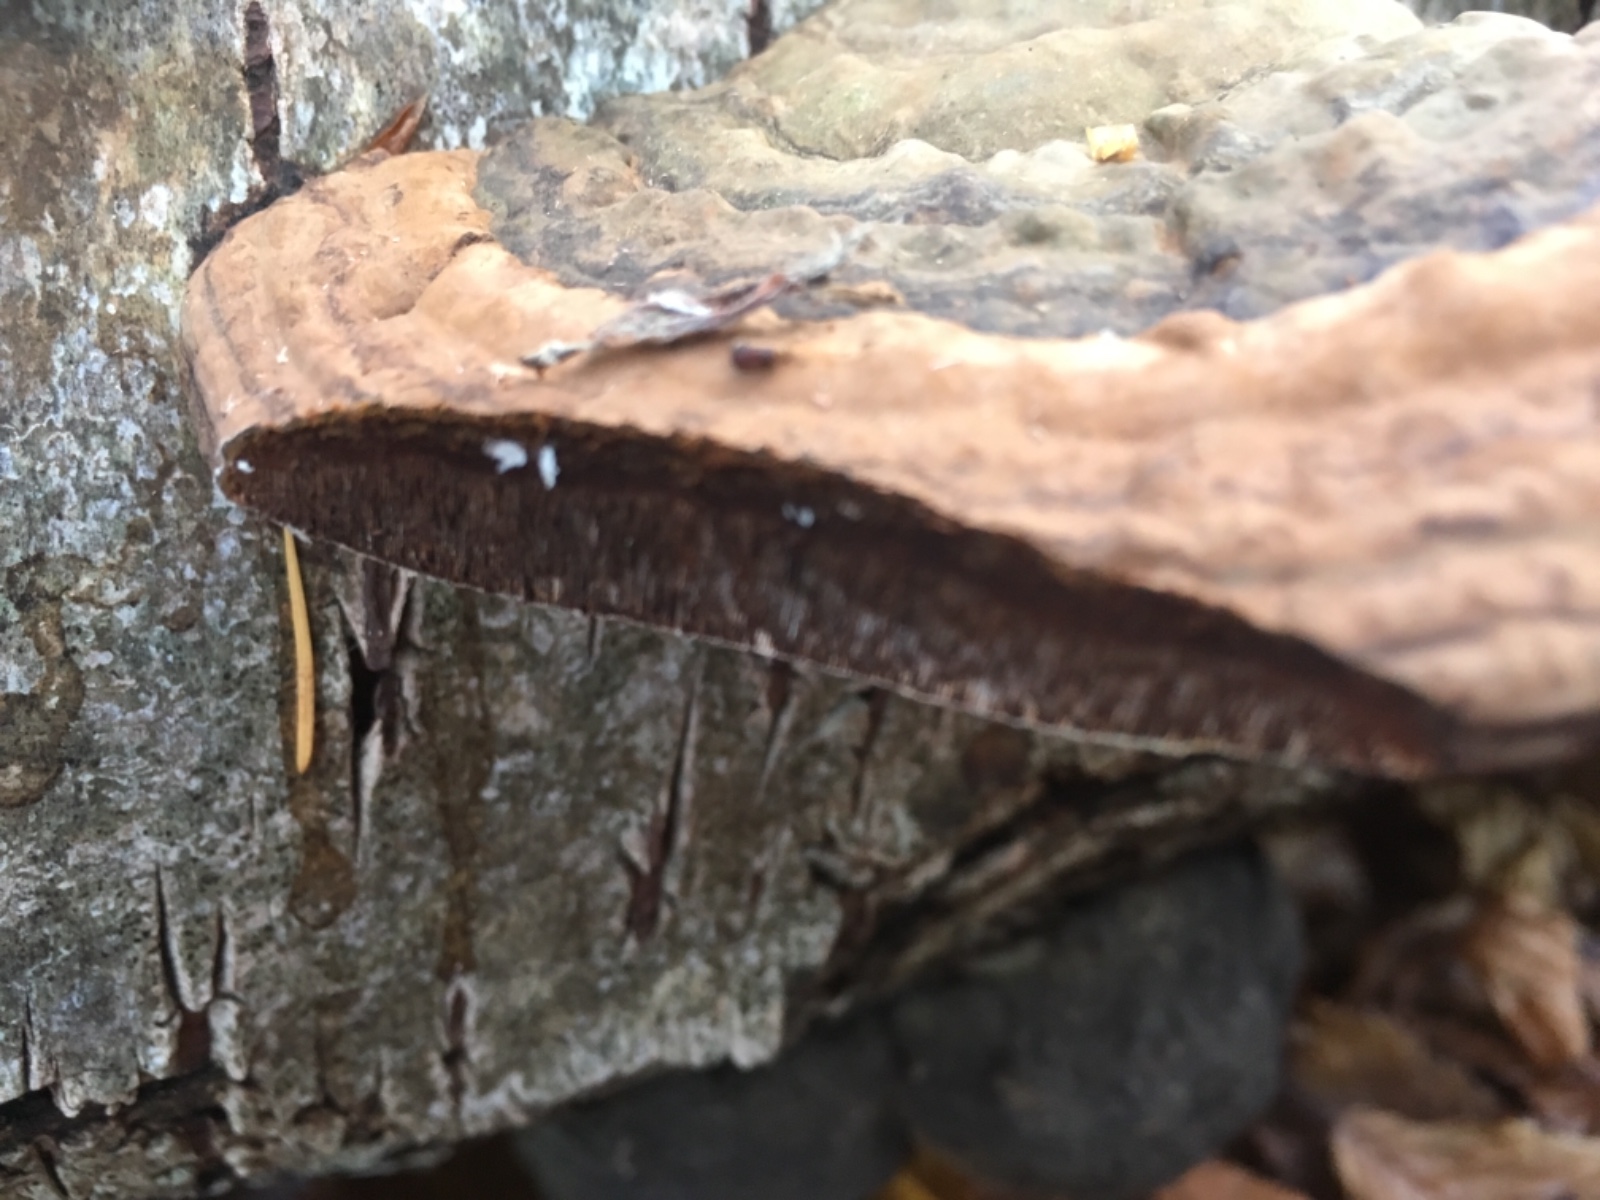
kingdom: Fungi
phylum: Basidiomycota
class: Agaricomycetes
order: Polyporales
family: Polyporaceae
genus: Fomes
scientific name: Fomes fomentarius
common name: tøndersvamp
